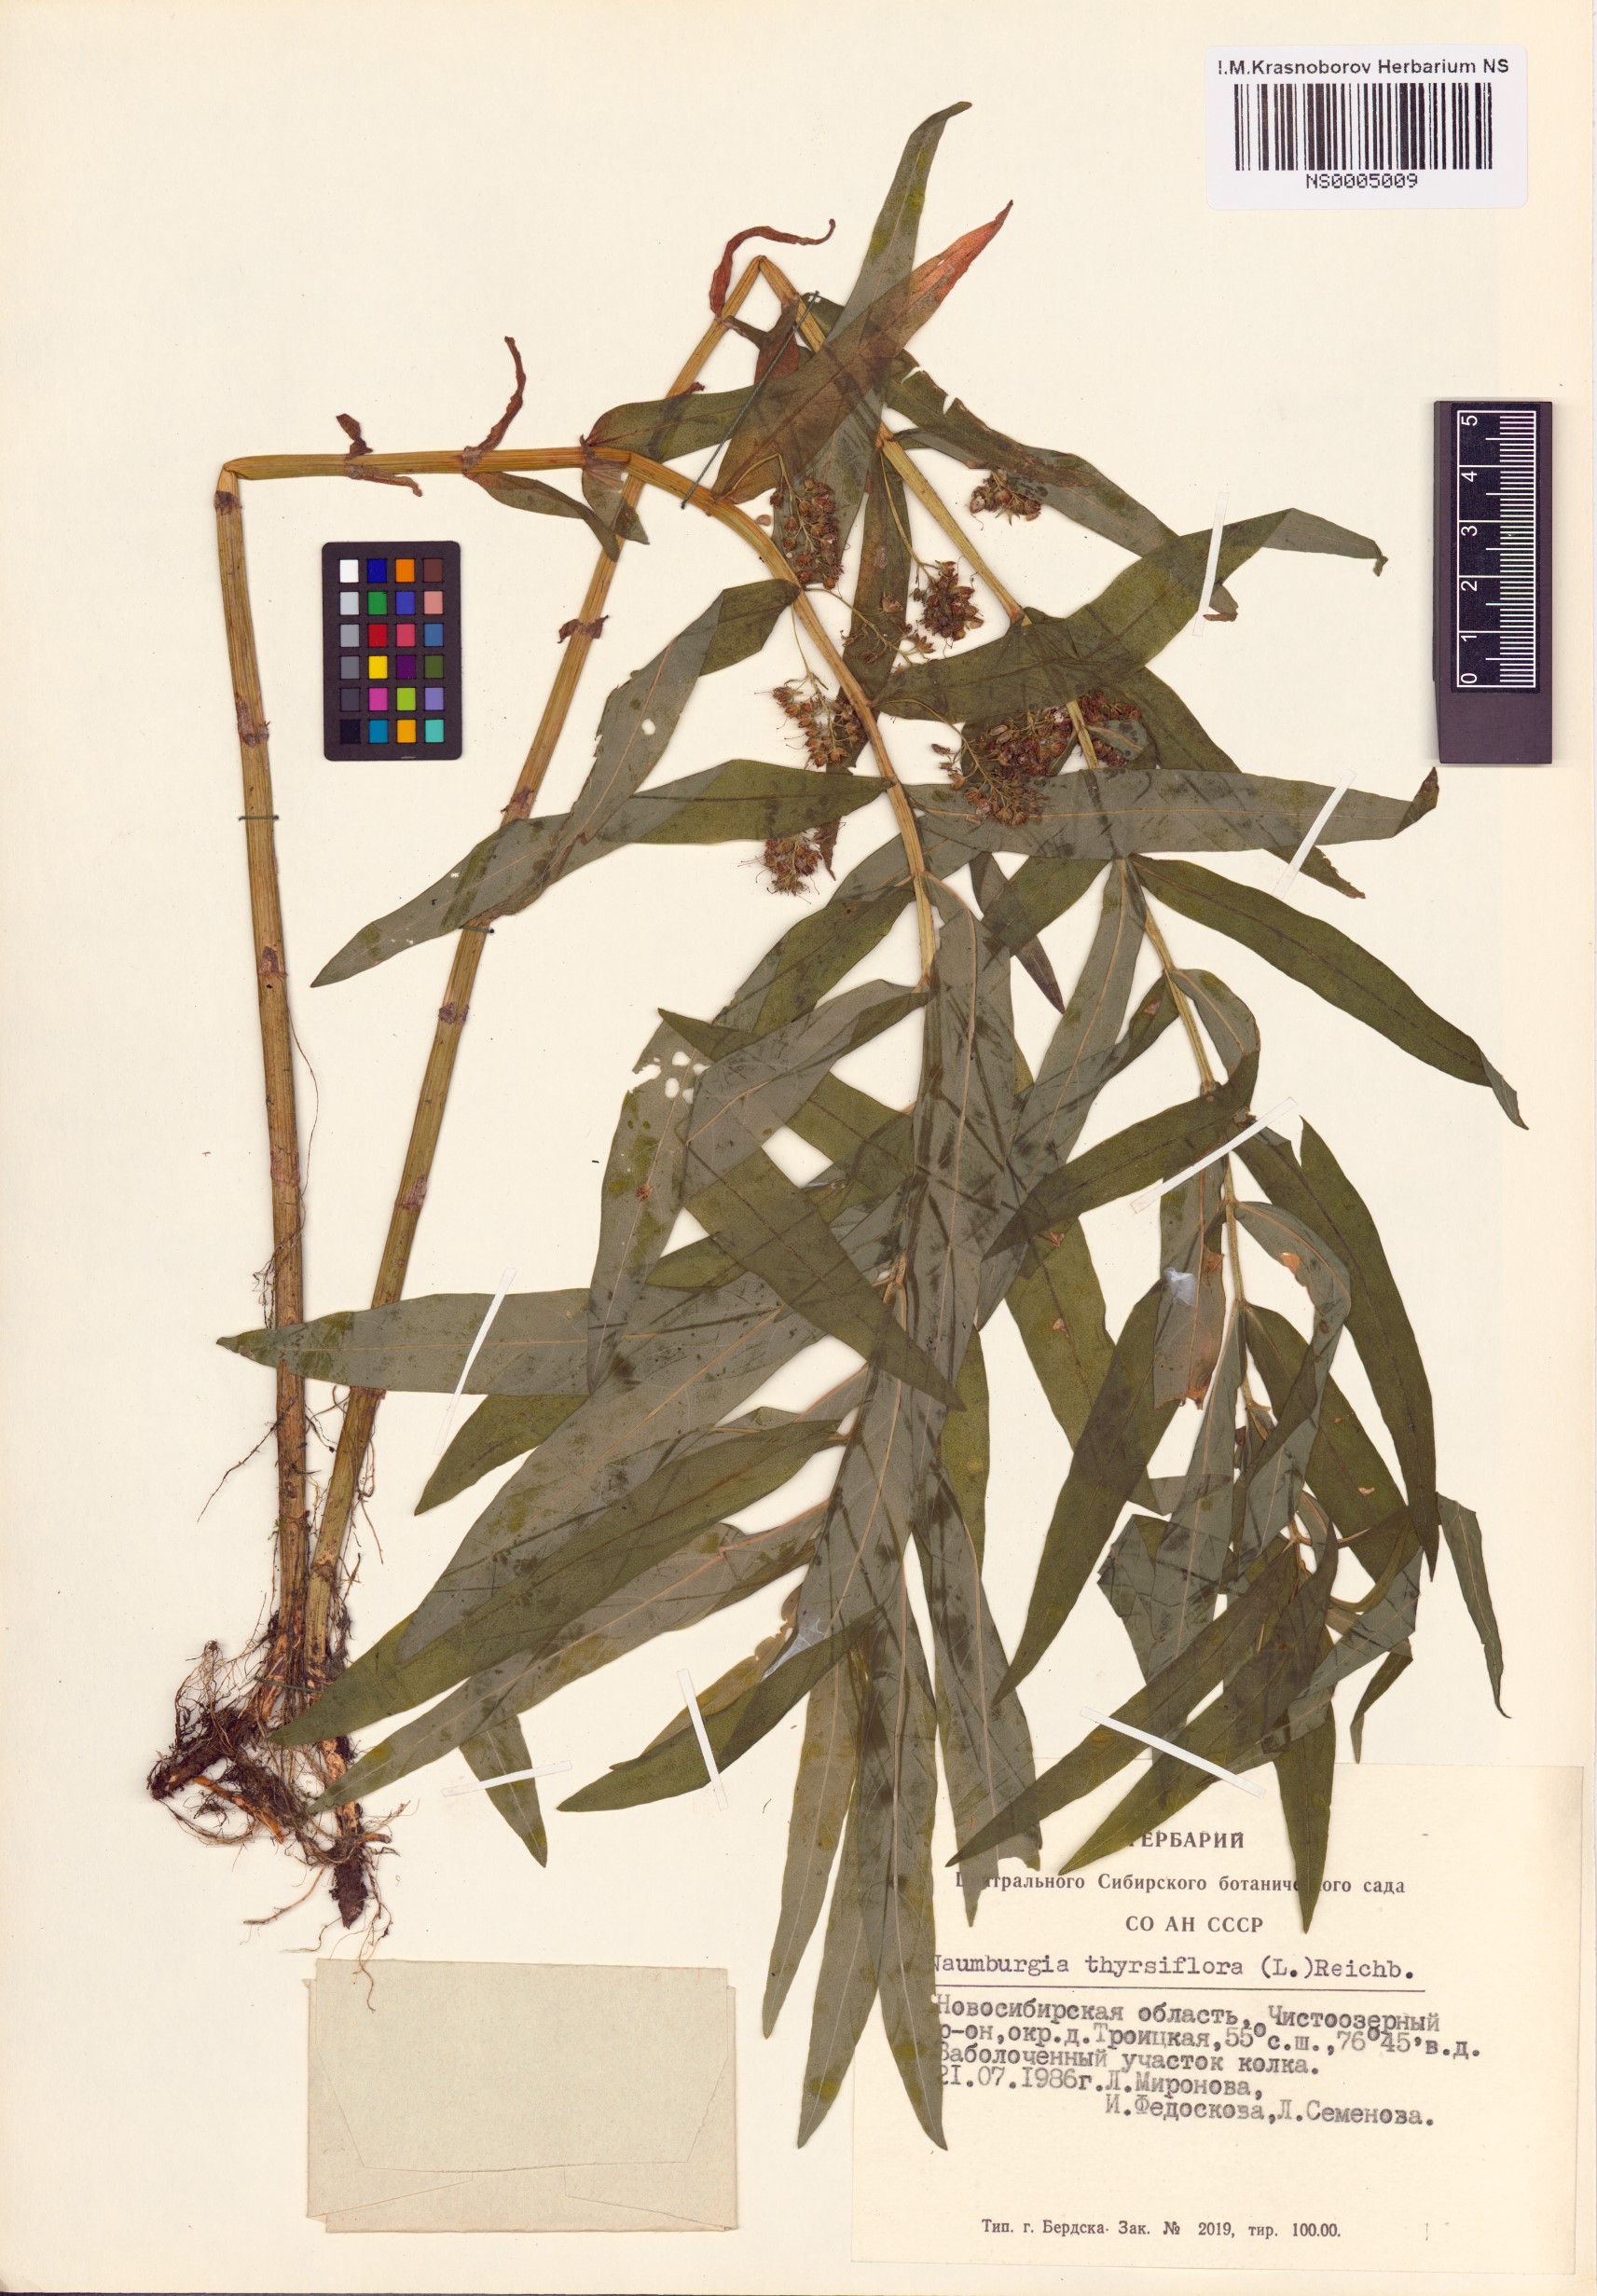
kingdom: Plantae
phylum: Tracheophyta
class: Magnoliopsida
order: Ericales
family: Primulaceae
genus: Lysimachia
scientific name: Lysimachia thyrsiflora
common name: Tufted loosestrife
